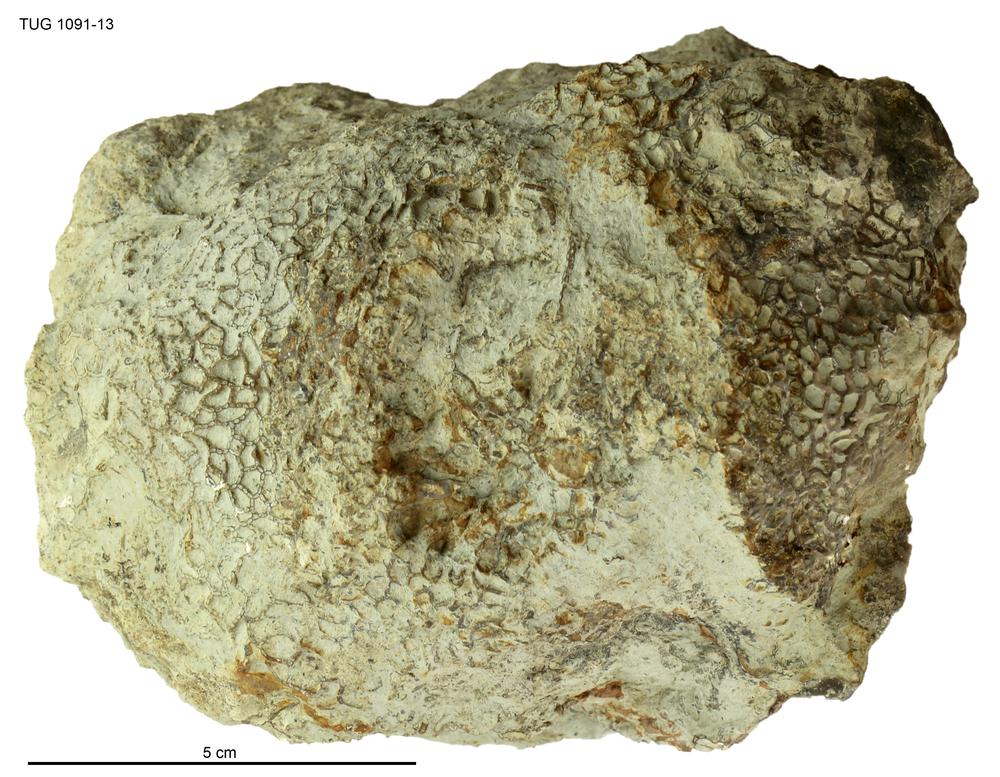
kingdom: Animalia
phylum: Cnidaria
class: Anthozoa
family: Cateniporidae
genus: Catenipora
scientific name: Catenipora
